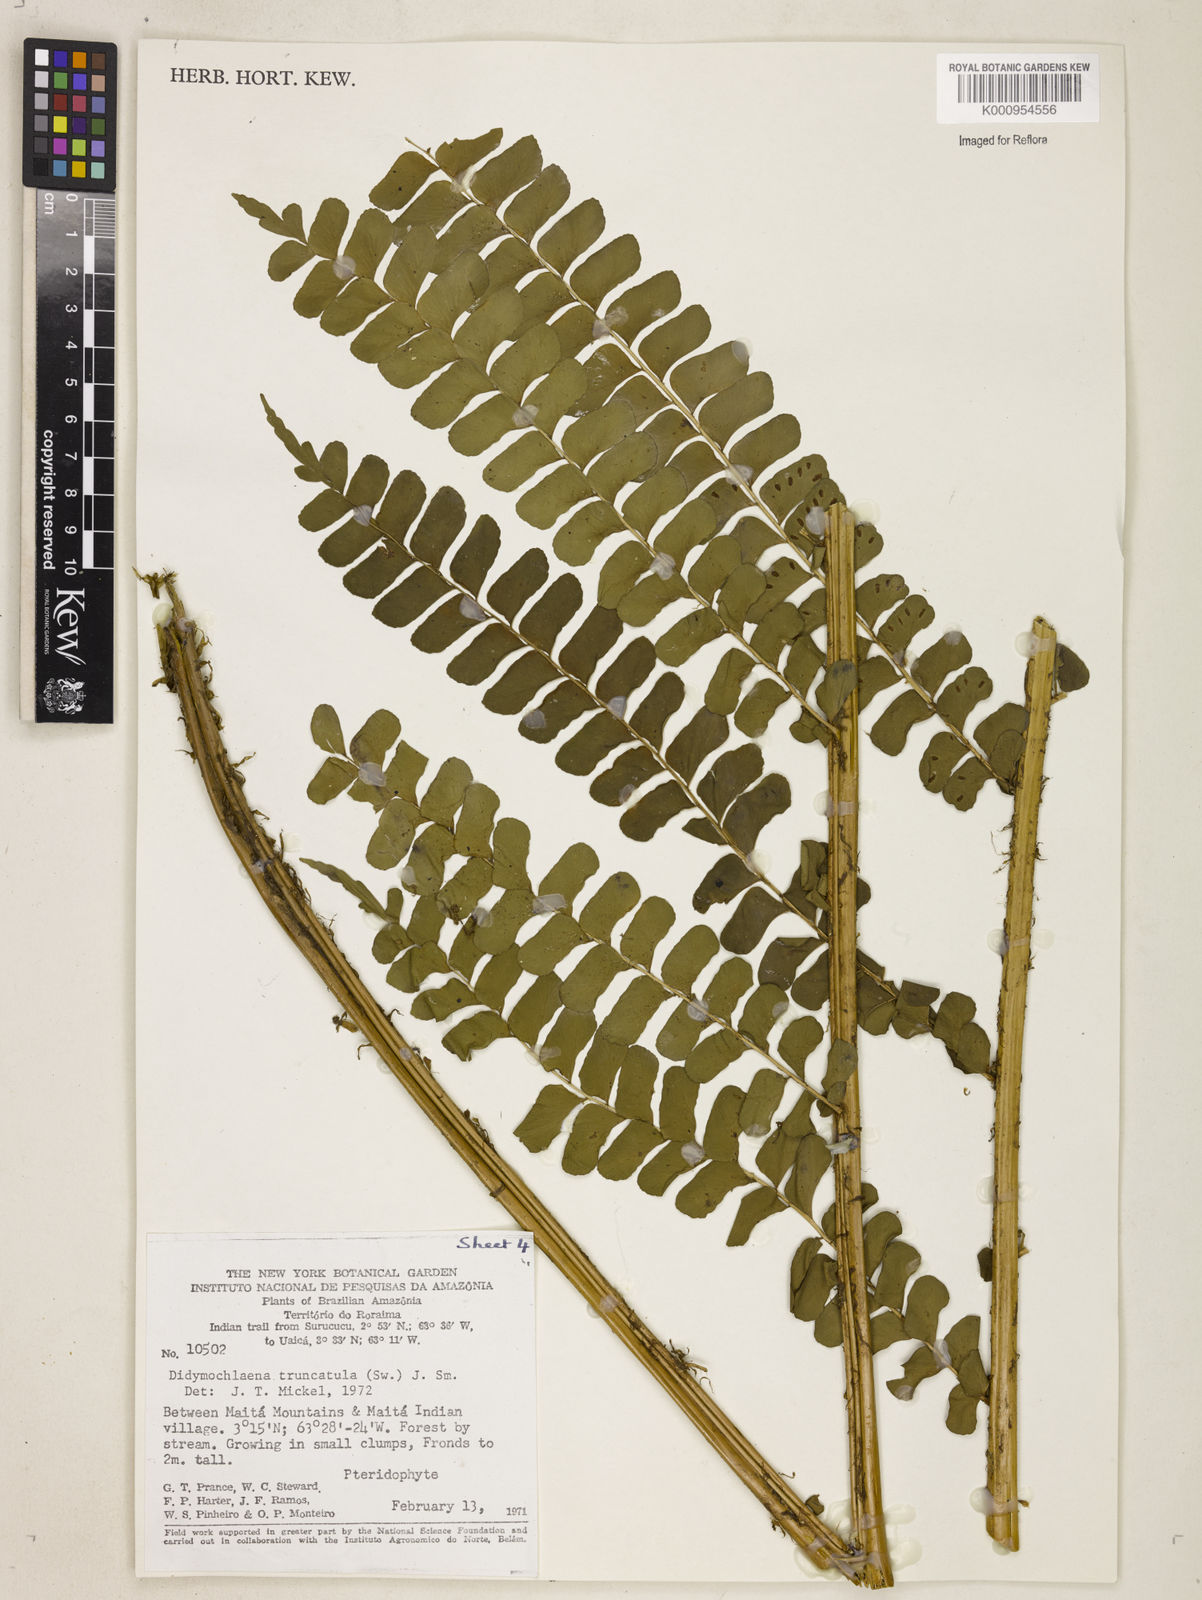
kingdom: Plantae
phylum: Tracheophyta
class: Polypodiopsida
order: Polypodiales
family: Didymochlaenaceae
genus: Didymochlaena
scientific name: Didymochlaena truncatula
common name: Mahogany fern
